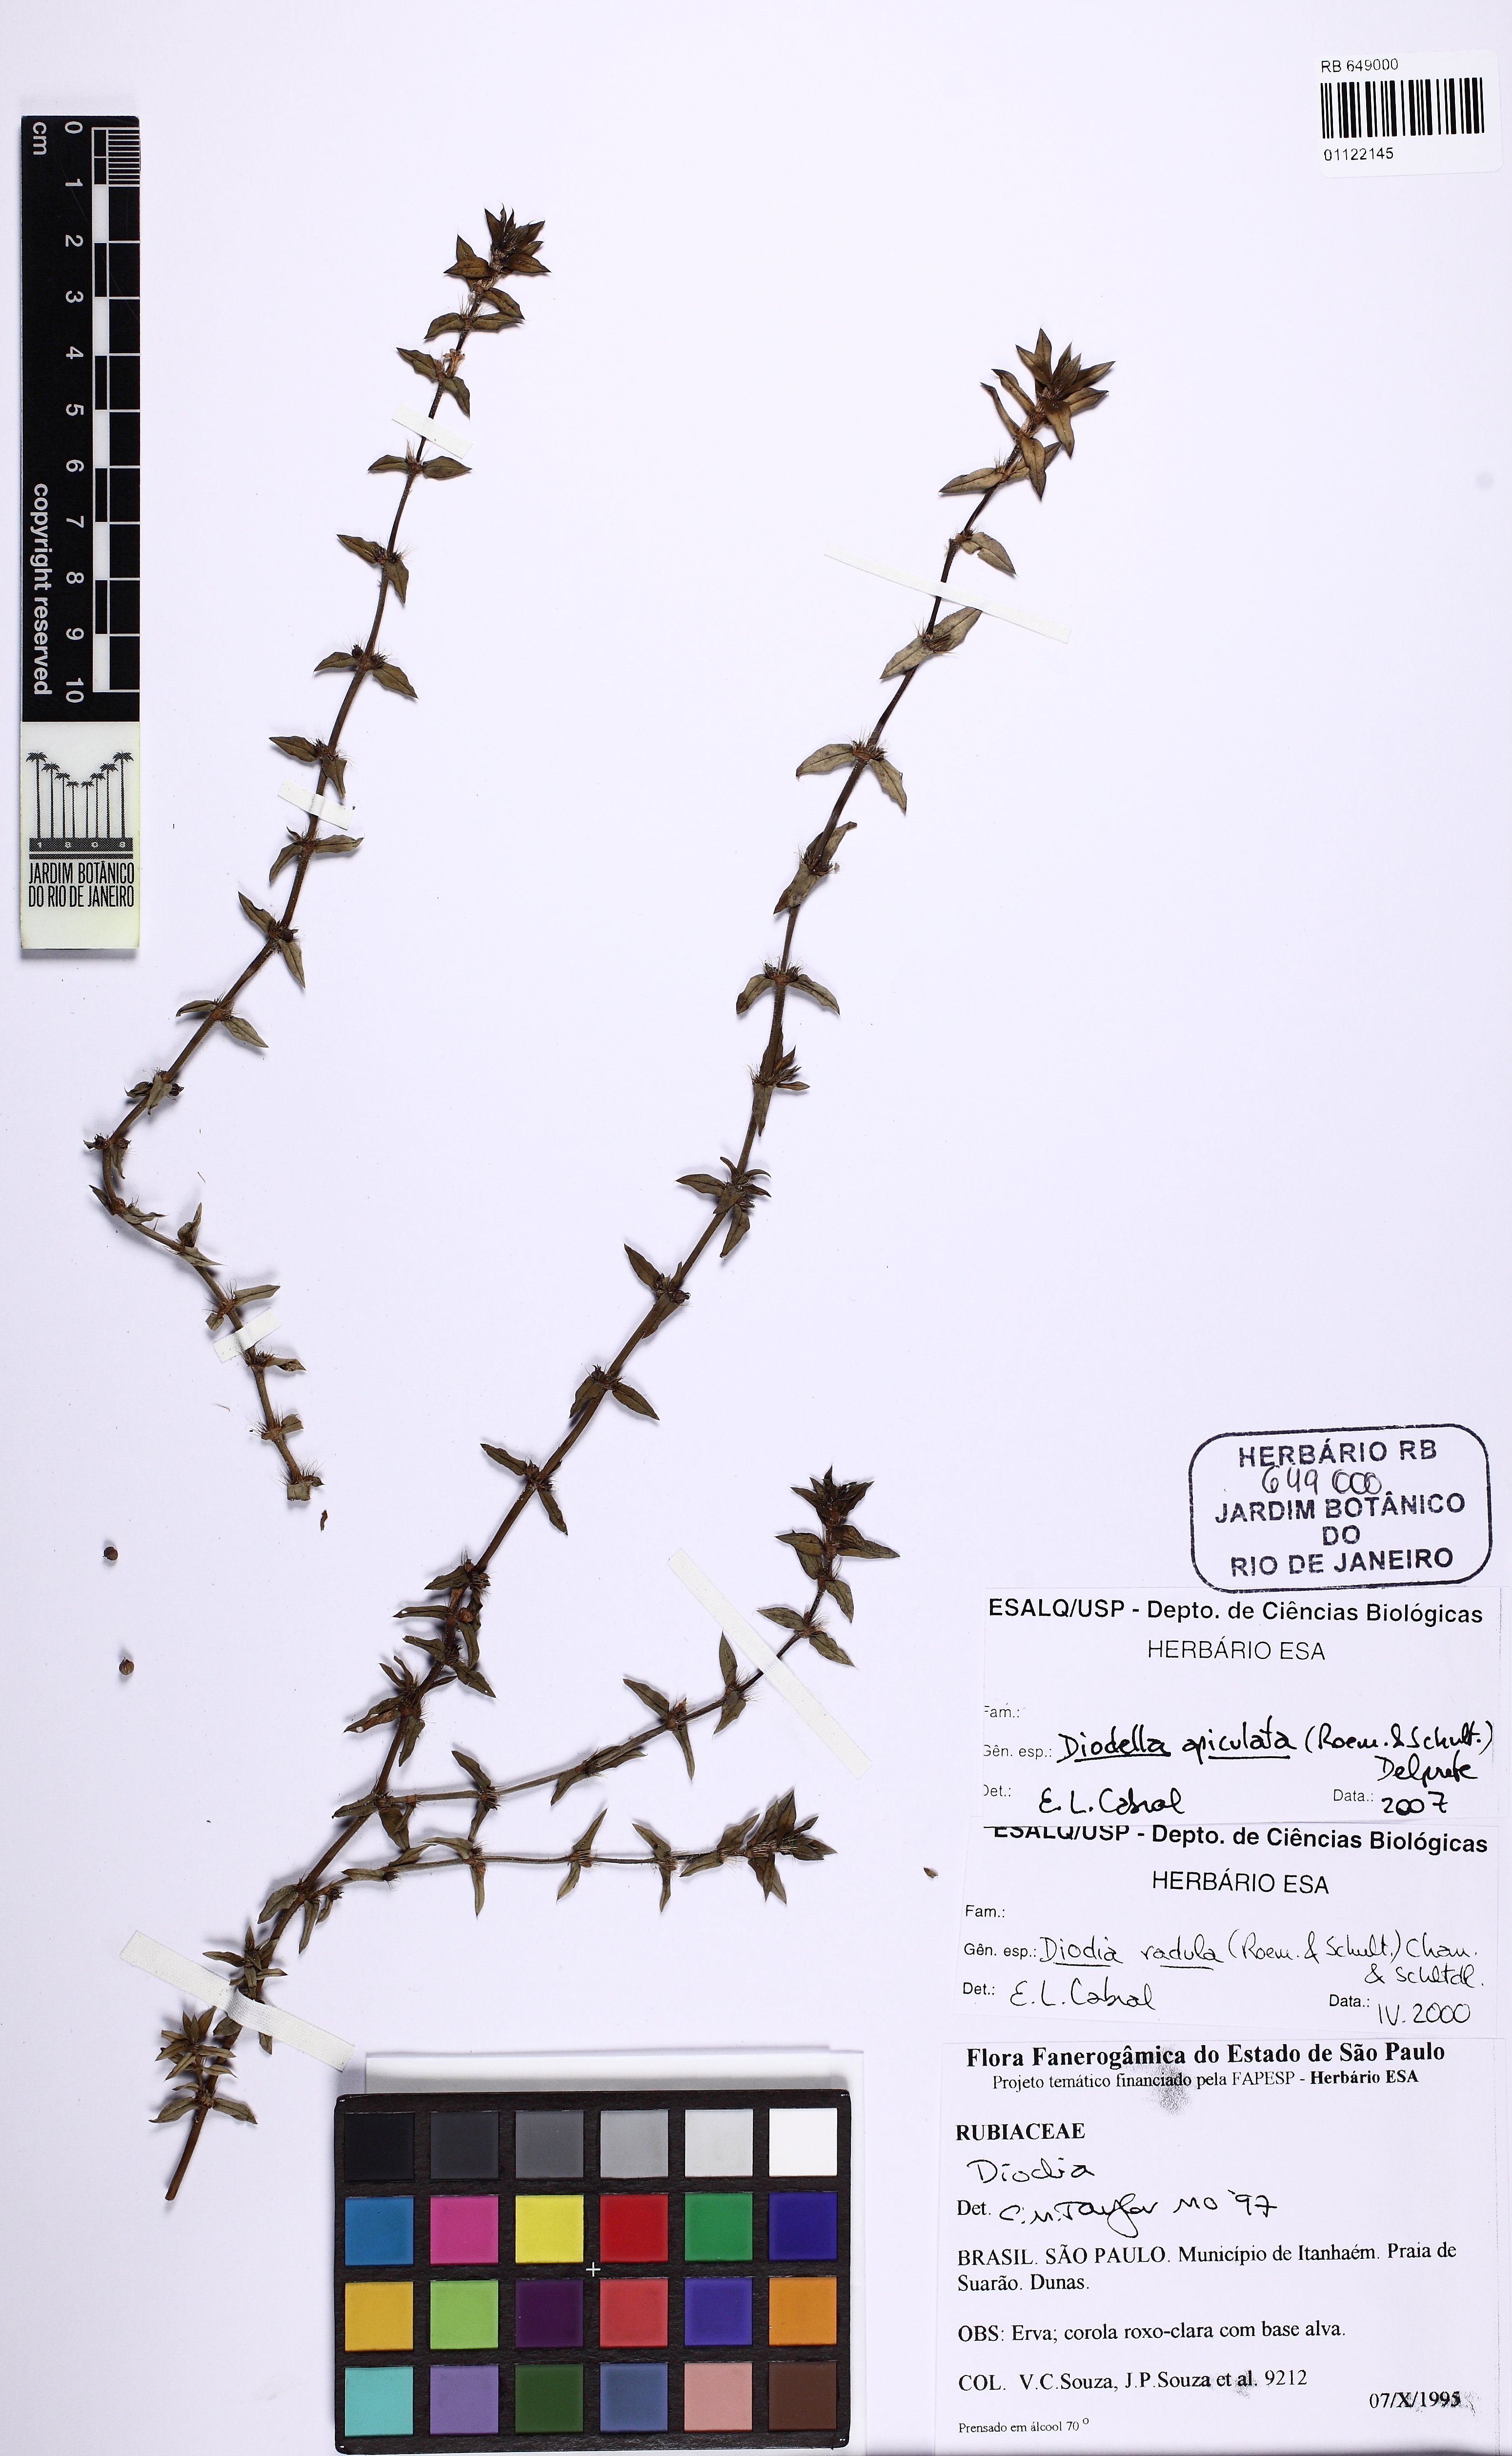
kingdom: Plantae
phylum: Tracheophyta
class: Magnoliopsida
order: Gentianales
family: Rubiaceae
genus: Hexasepalum
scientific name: Hexasepalum apiculatum
